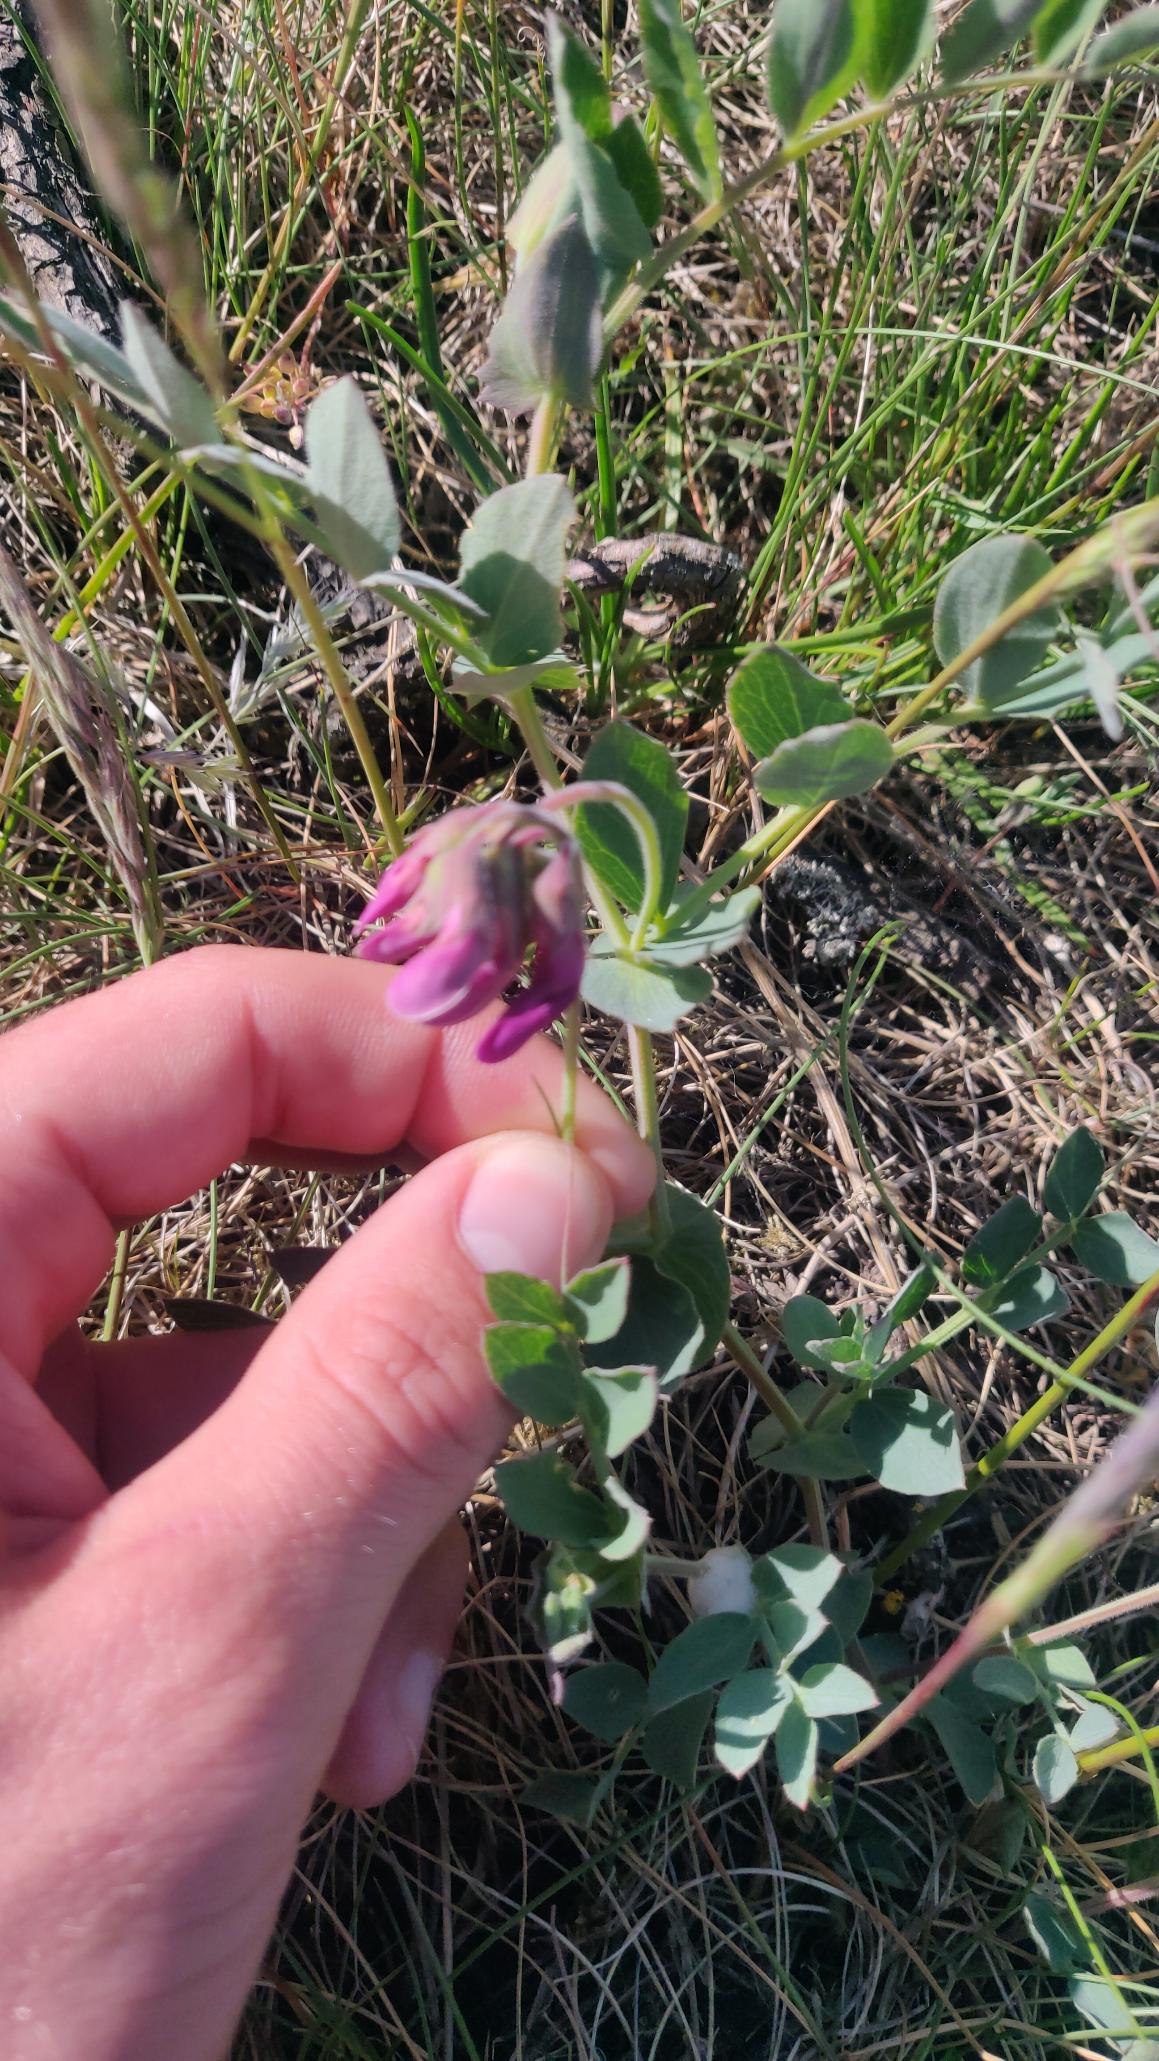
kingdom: Plantae
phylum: Tracheophyta
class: Magnoliopsida
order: Fabales
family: Fabaceae
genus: Lathyrus
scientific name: Lathyrus japonicus
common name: Strand-fladbælg
